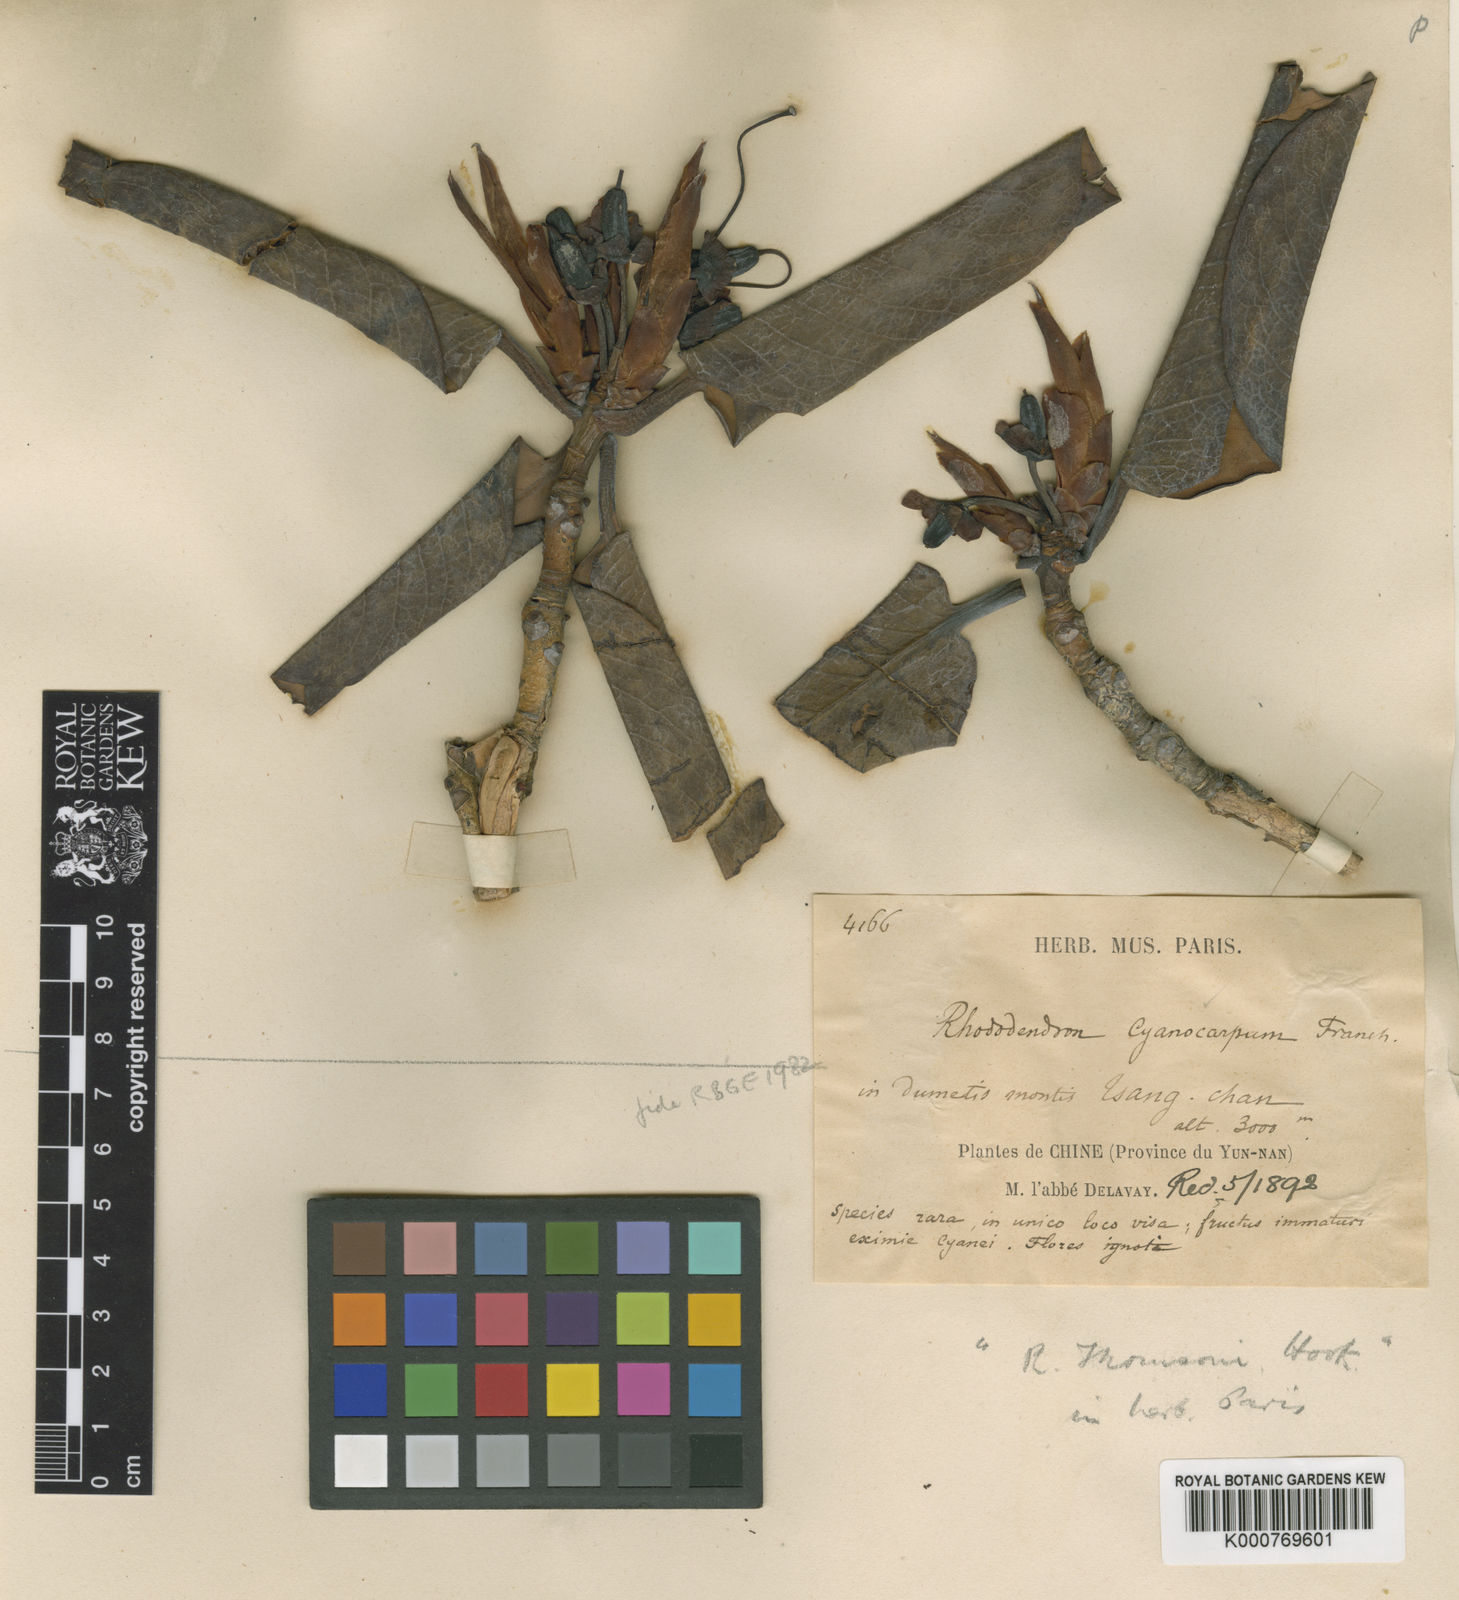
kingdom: Plantae
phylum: Tracheophyta
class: Magnoliopsida
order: Ericales
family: Ericaceae
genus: Rhododendron
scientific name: Rhododendron cyanocarpum
